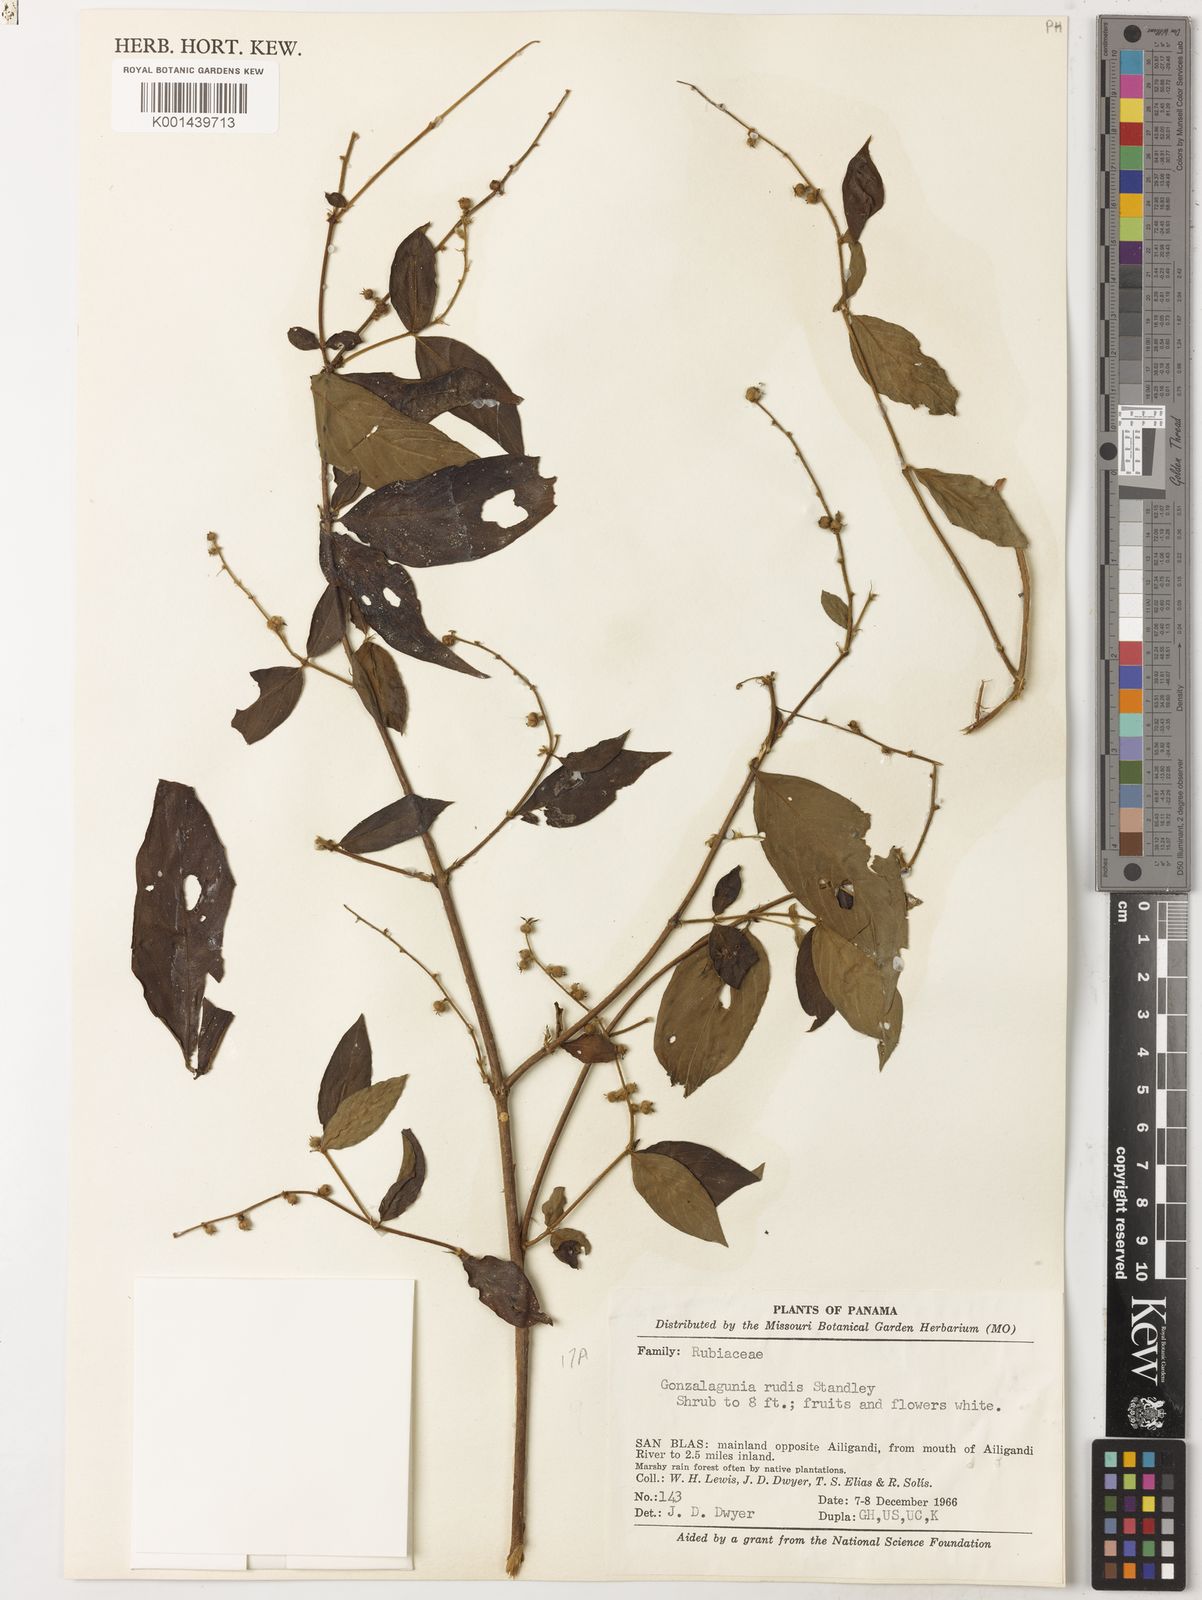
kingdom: Plantae
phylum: Tracheophyta
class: Magnoliopsida
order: Gentianales
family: Rubiaceae
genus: Gonzalagunia
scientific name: Gonzalagunia rudis
